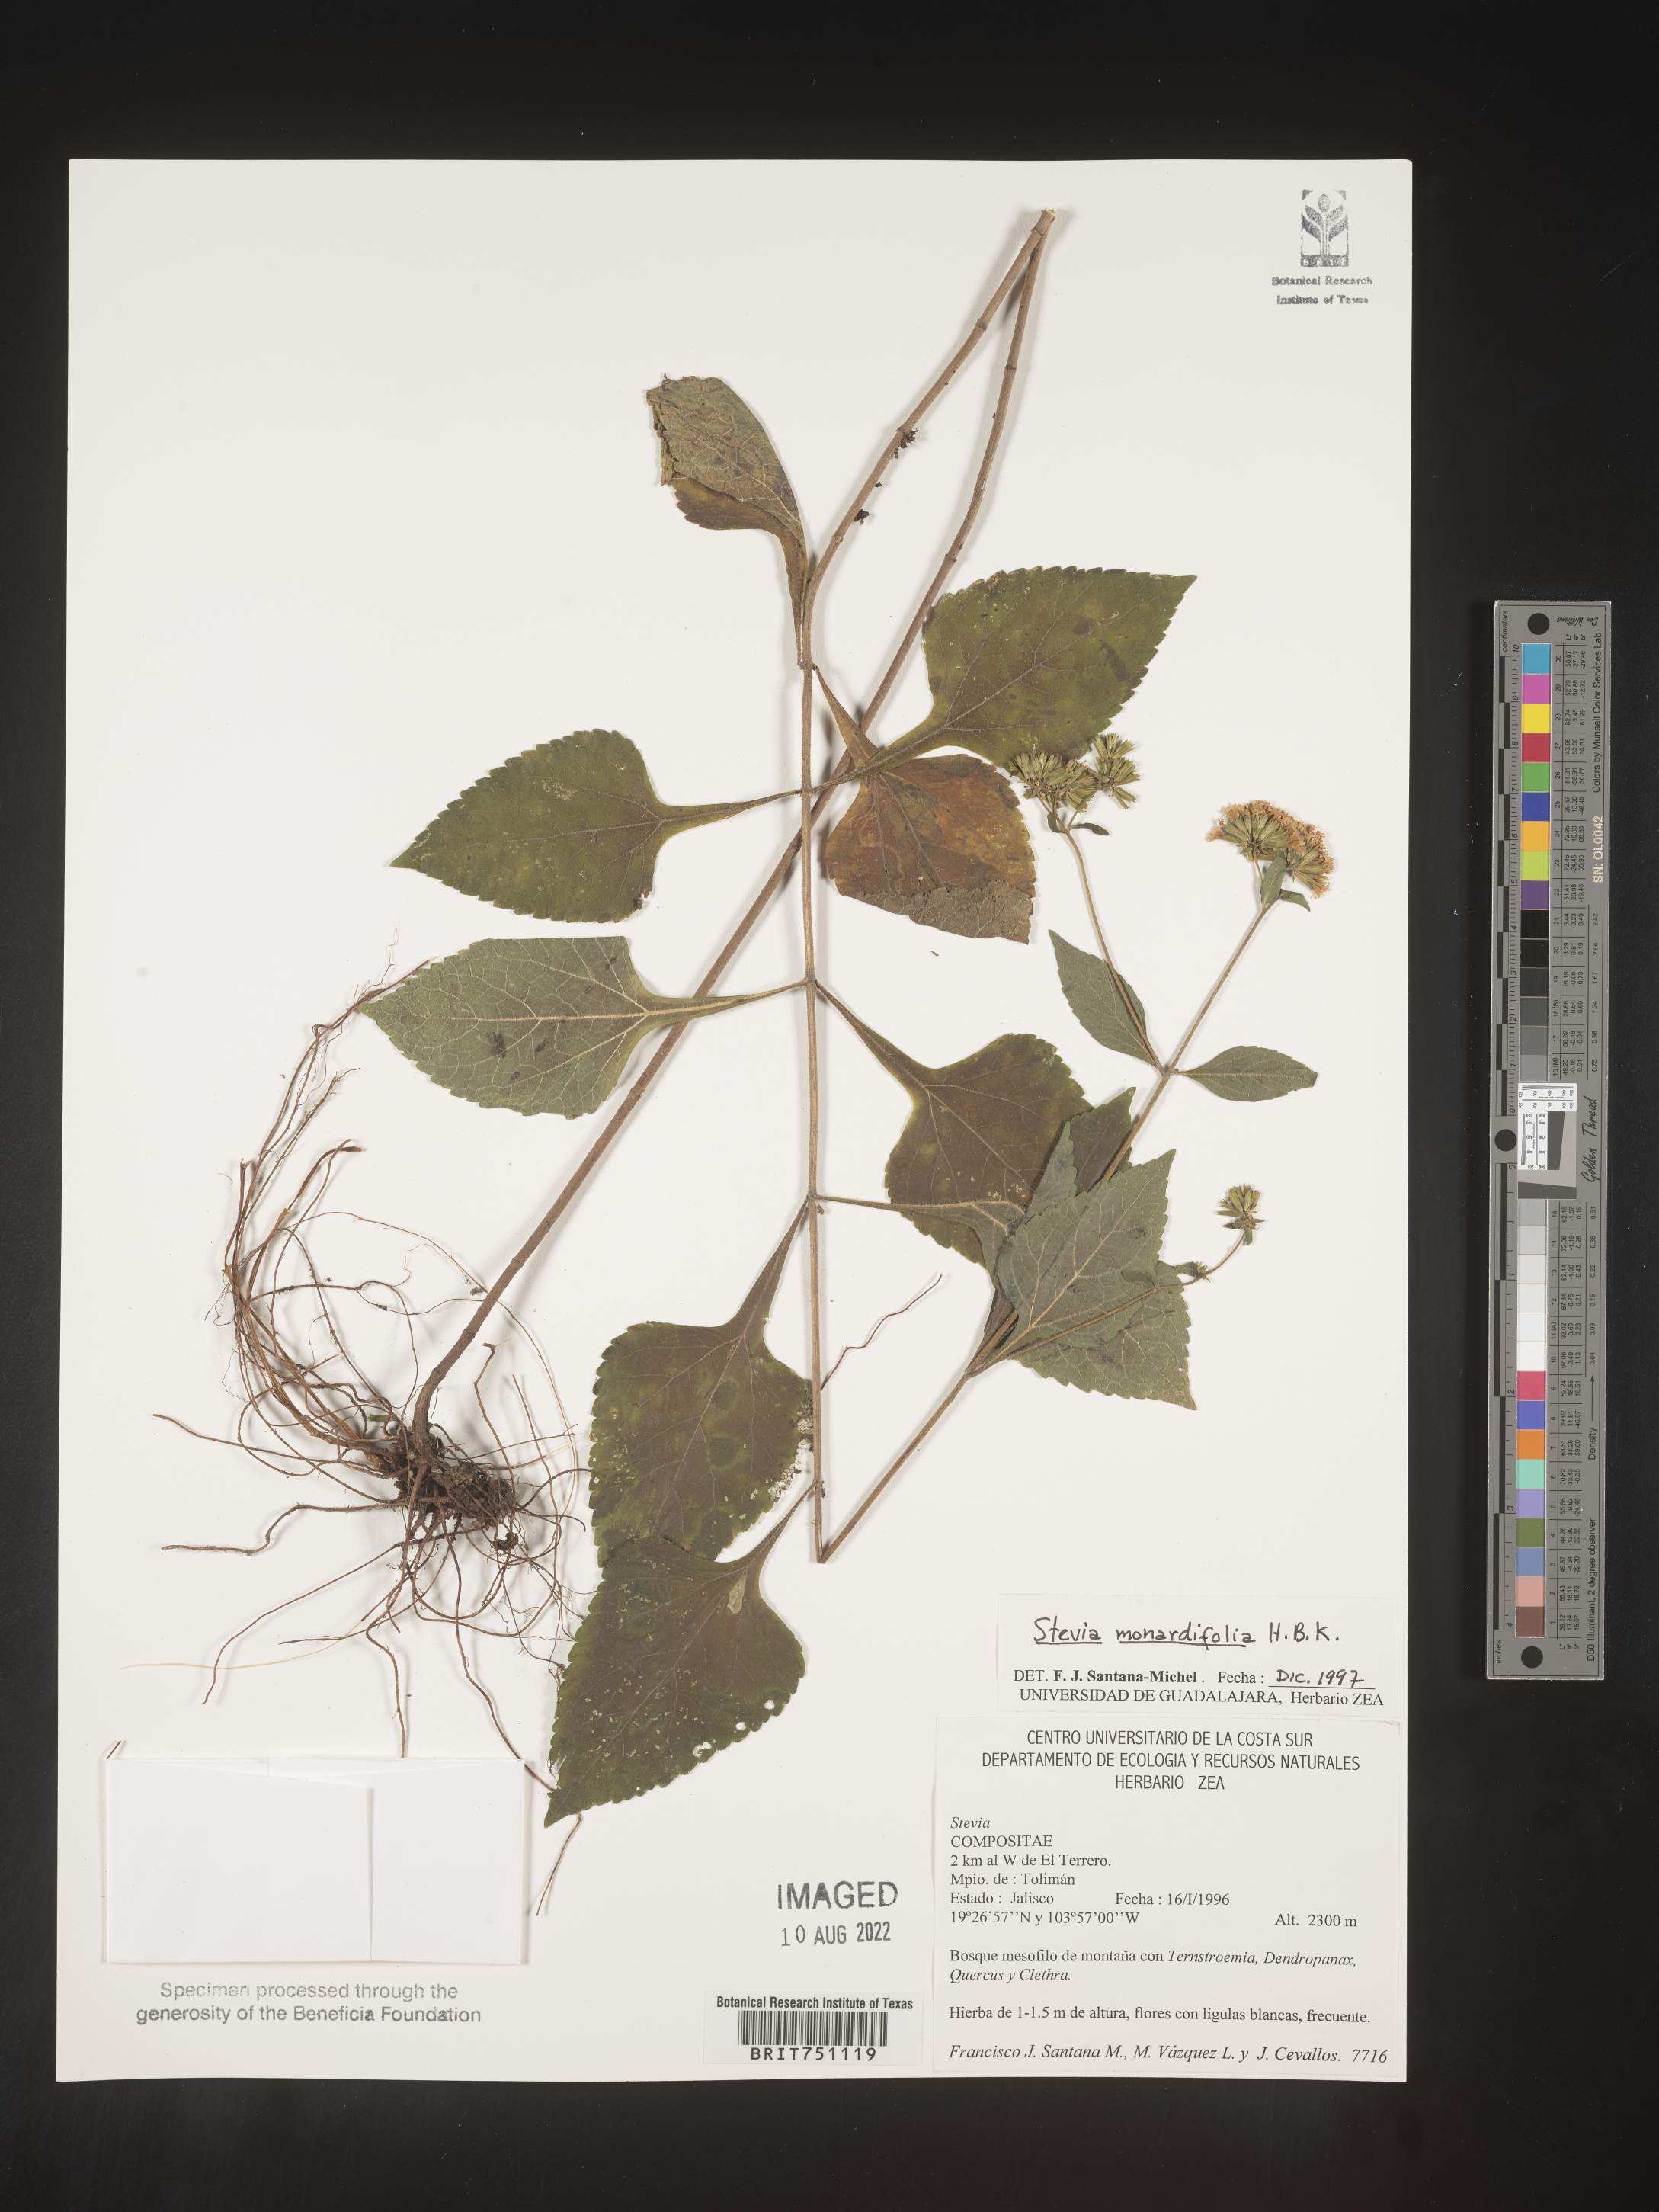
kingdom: Plantae
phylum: Tracheophyta
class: Magnoliopsida
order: Asterales
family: Asteraceae
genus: Stevia
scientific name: Stevia
